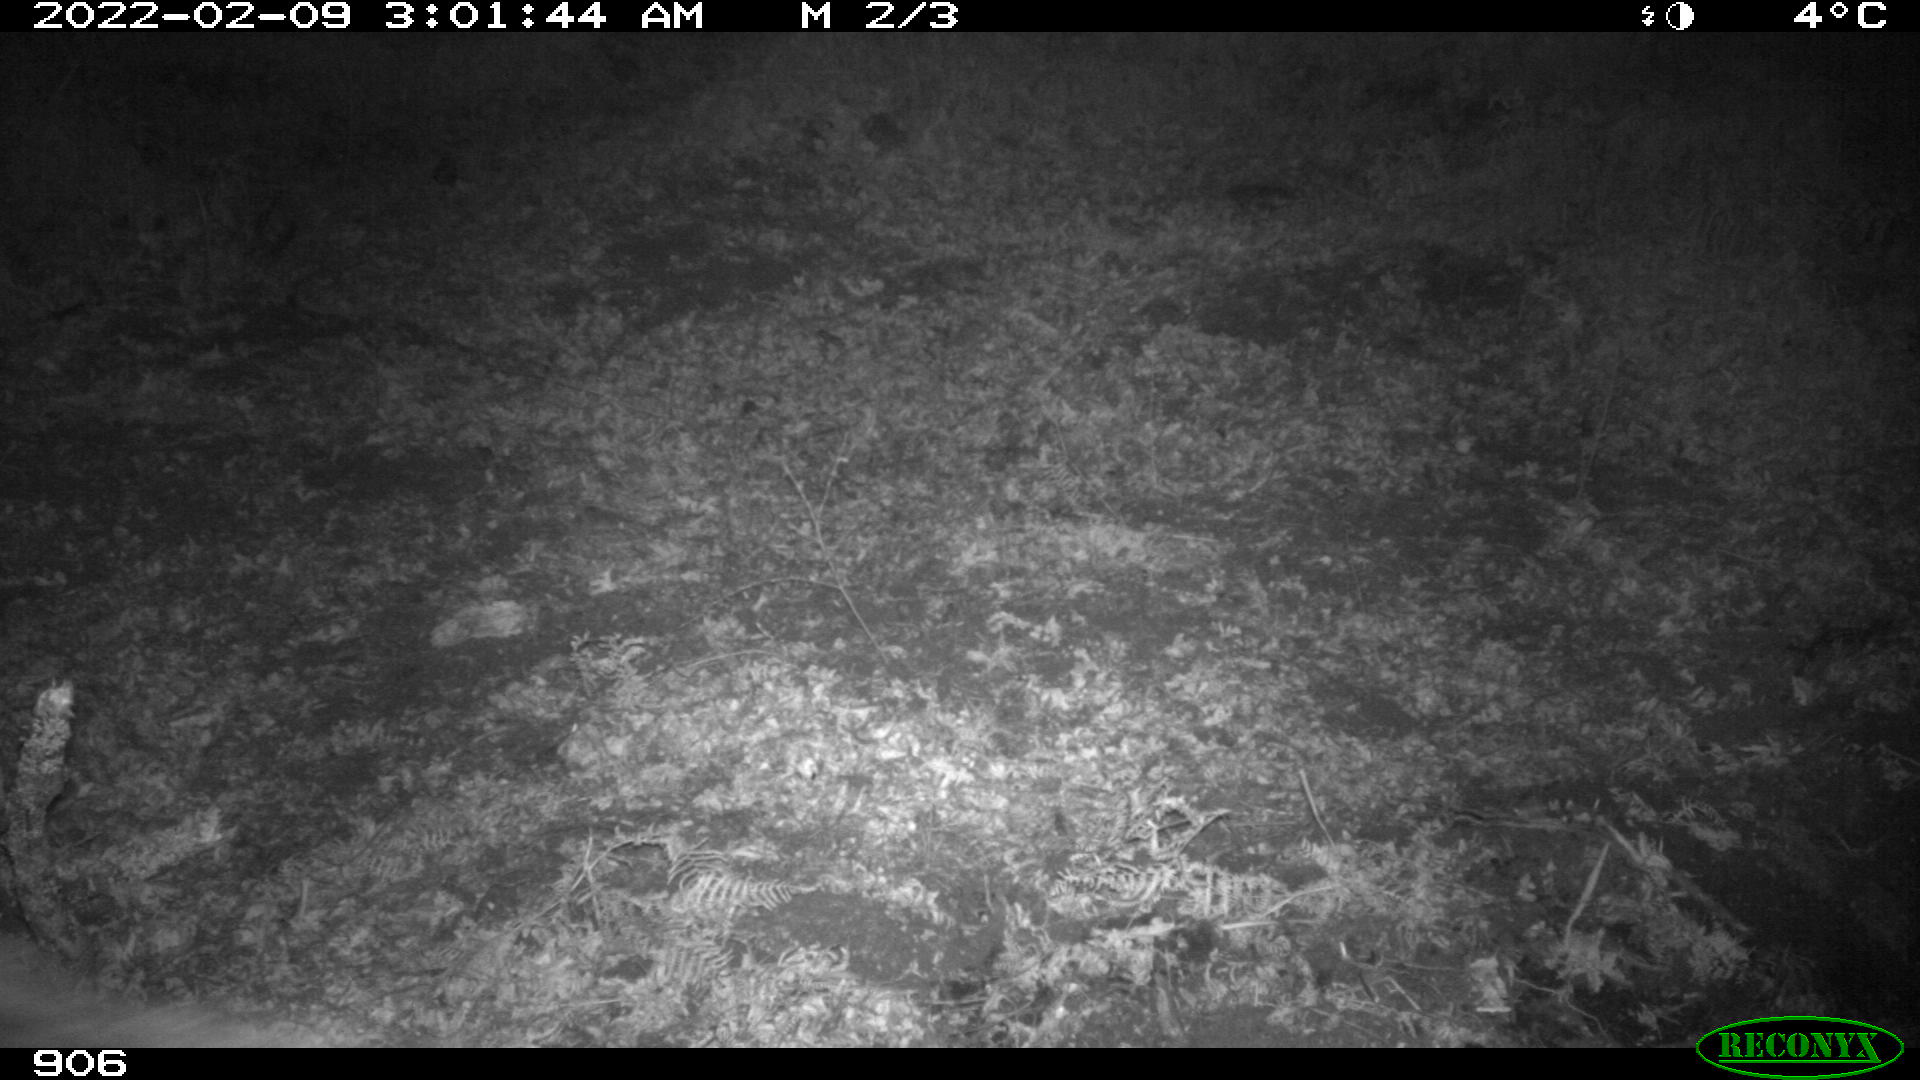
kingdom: Animalia
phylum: Chordata
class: Mammalia
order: Artiodactyla
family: Suidae
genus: Sus
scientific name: Sus scrofa
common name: Wild boar
